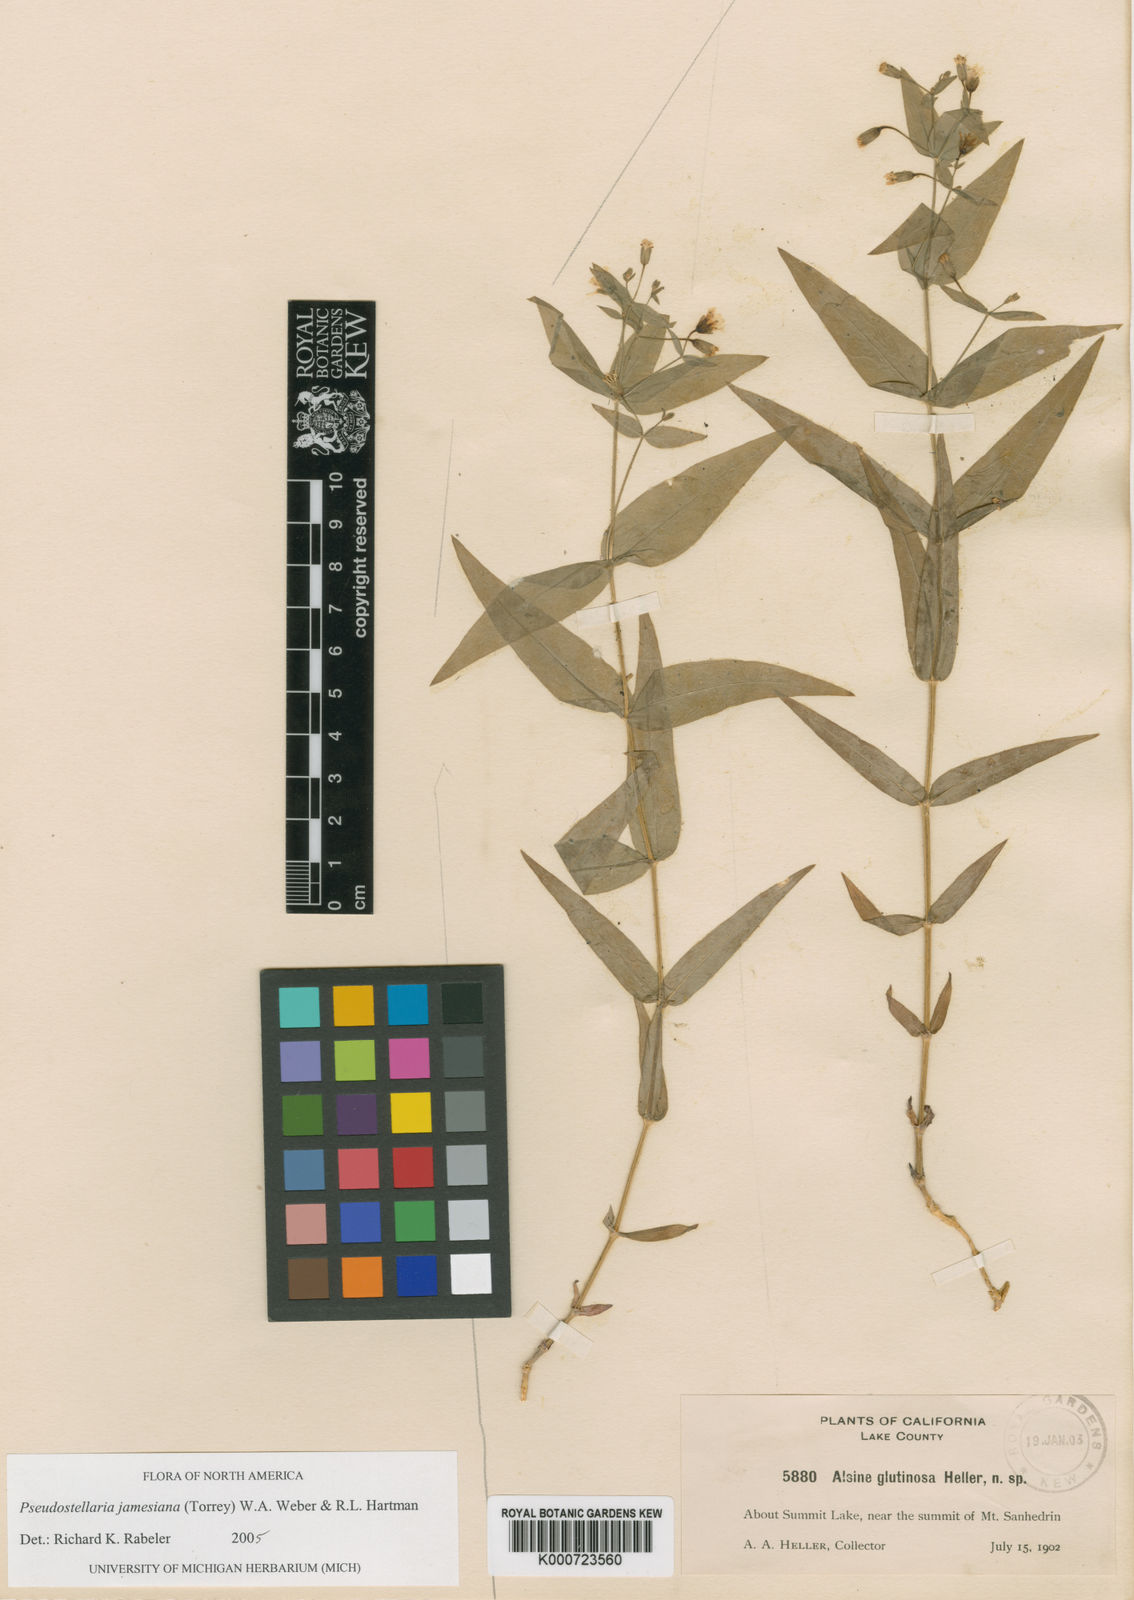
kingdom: Plantae
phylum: Tracheophyta
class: Magnoliopsida
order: Caryophyllales
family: Caryophyllaceae
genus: Stellaria
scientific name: Stellaria
